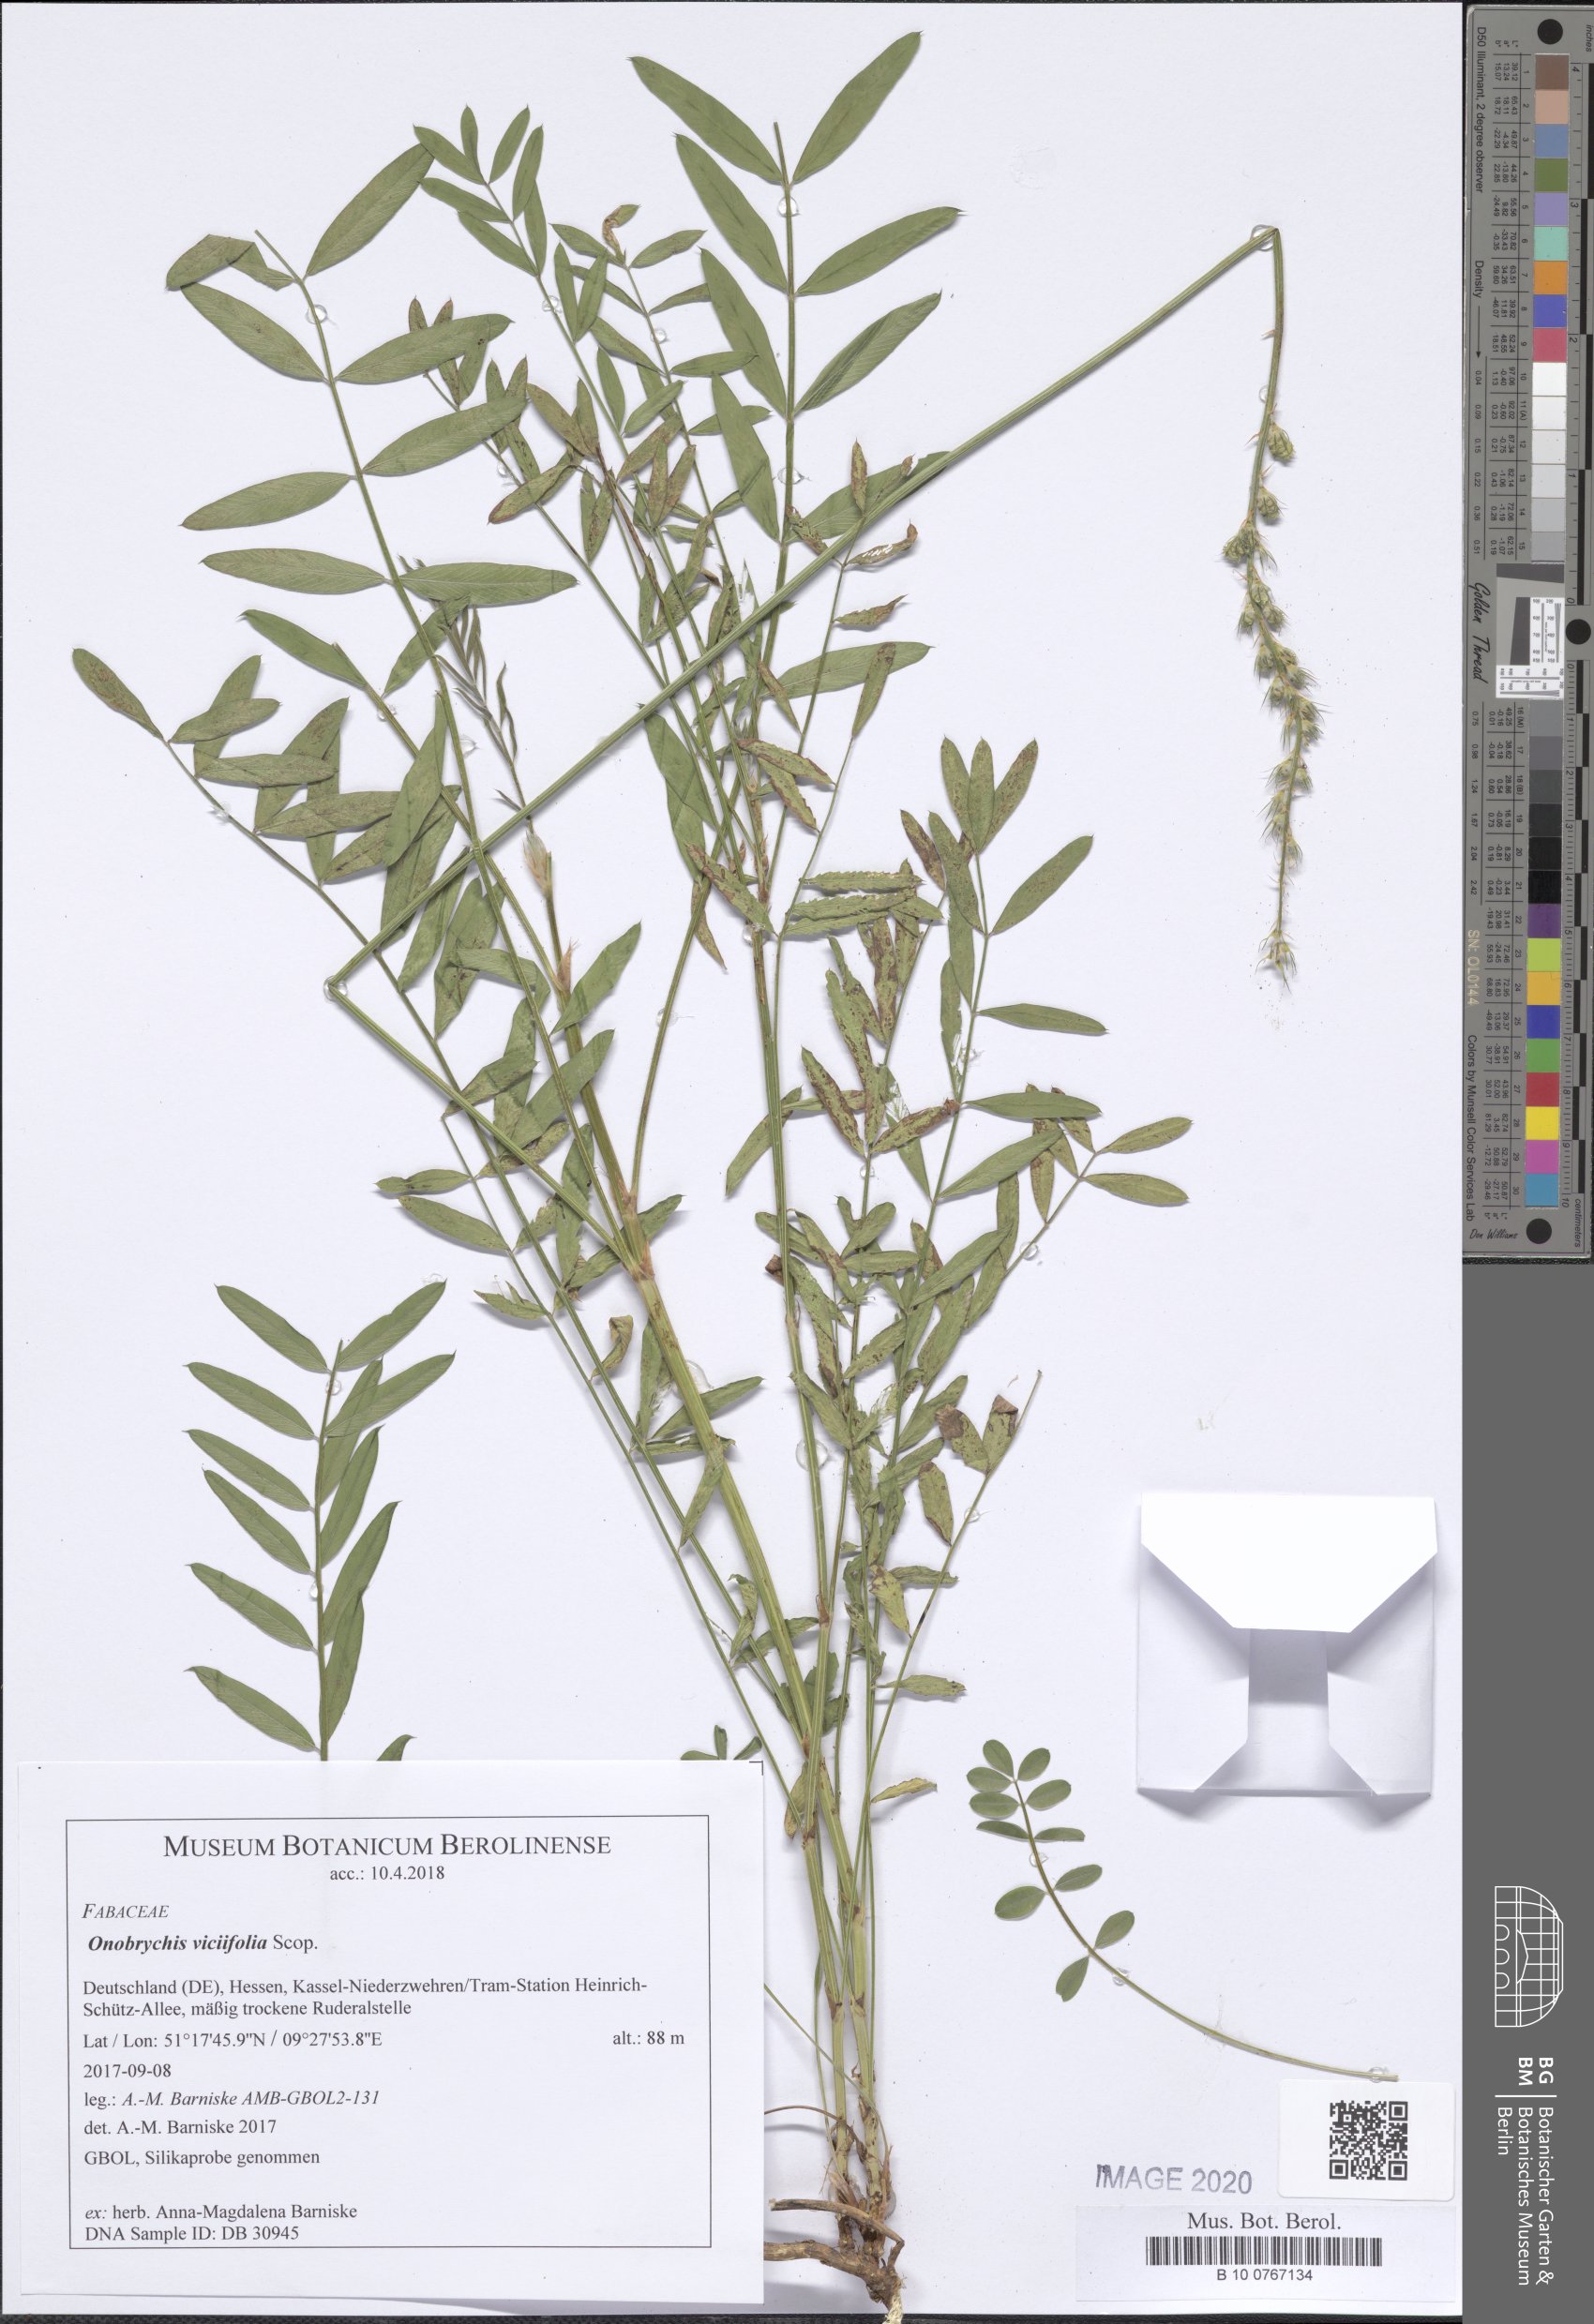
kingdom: Plantae
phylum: Tracheophyta
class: Magnoliopsida
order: Fabales
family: Fabaceae
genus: Onobrychis
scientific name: Onobrychis viciifolia
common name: Sainfoin
